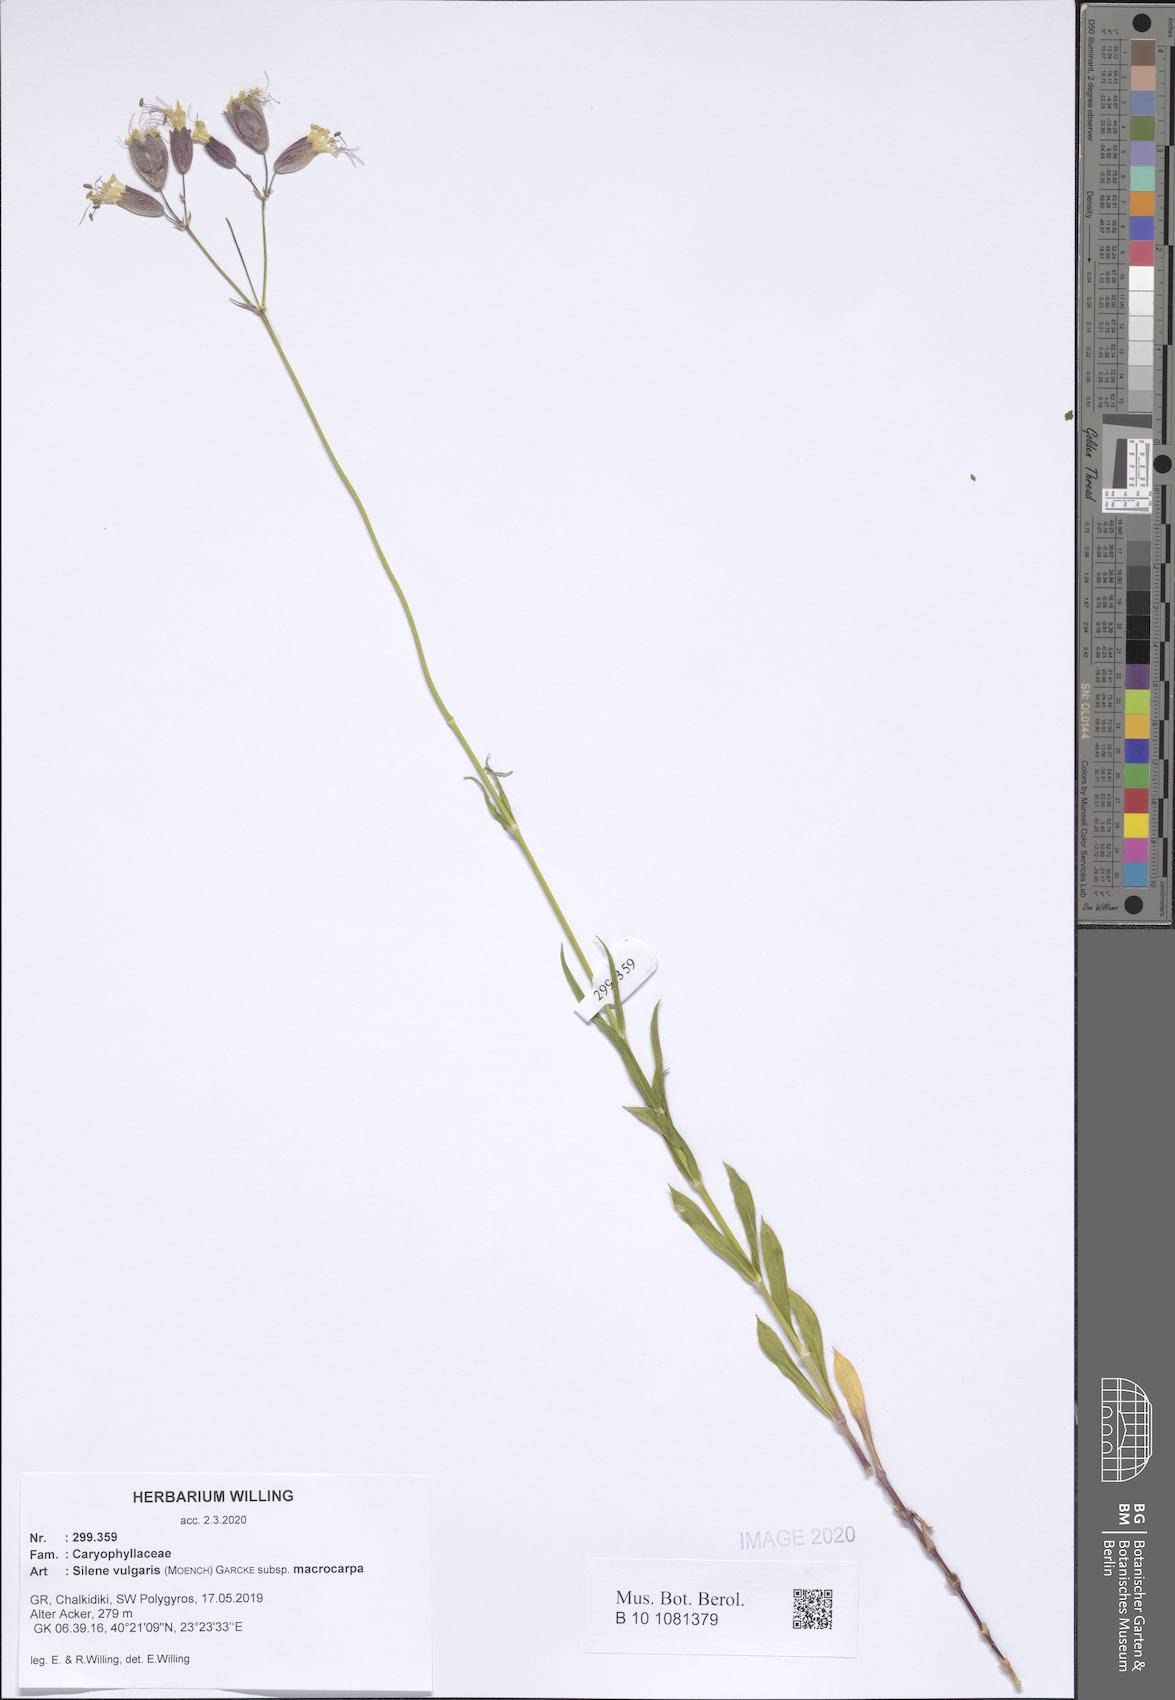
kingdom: Plantae
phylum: Tracheophyta
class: Magnoliopsida
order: Caryophyllales
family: Caryophyllaceae
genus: Silene
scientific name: Silene vulgaris
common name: Bladder campion
